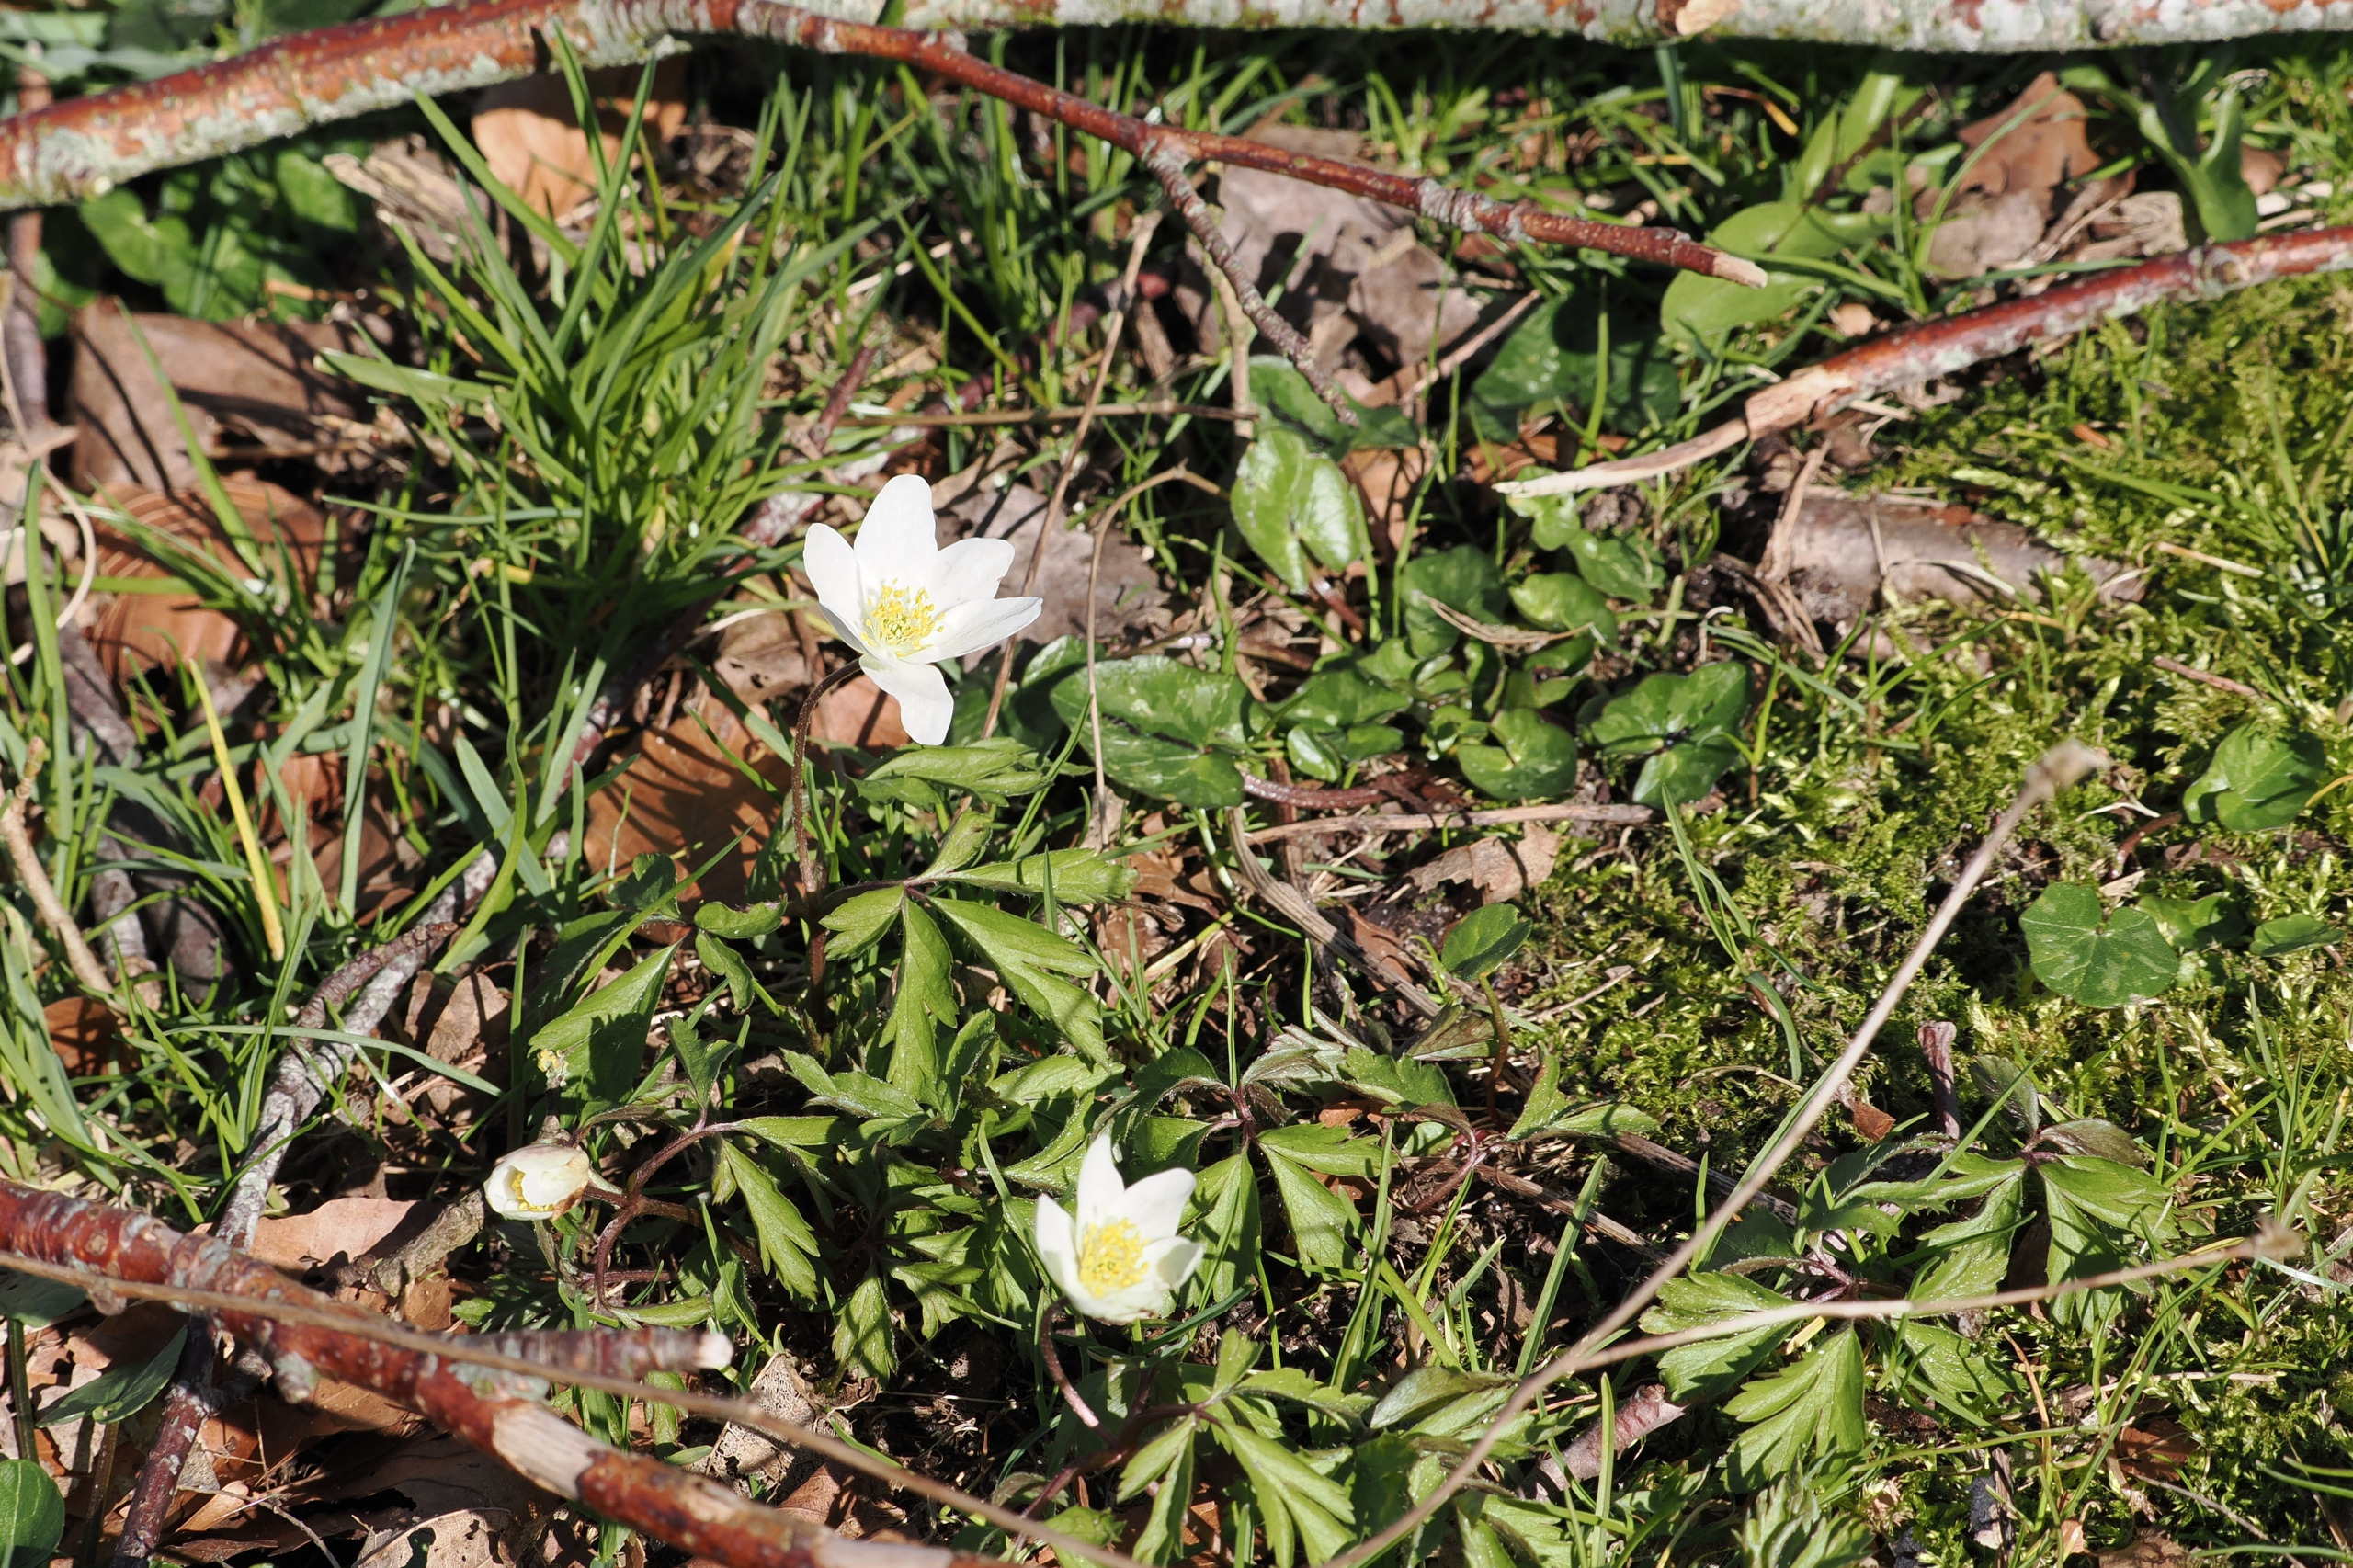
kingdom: Plantae
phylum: Tracheophyta
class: Magnoliopsida
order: Ranunculales
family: Ranunculaceae
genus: Anemone
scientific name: Anemone nemorosa
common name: Hvid anemone
